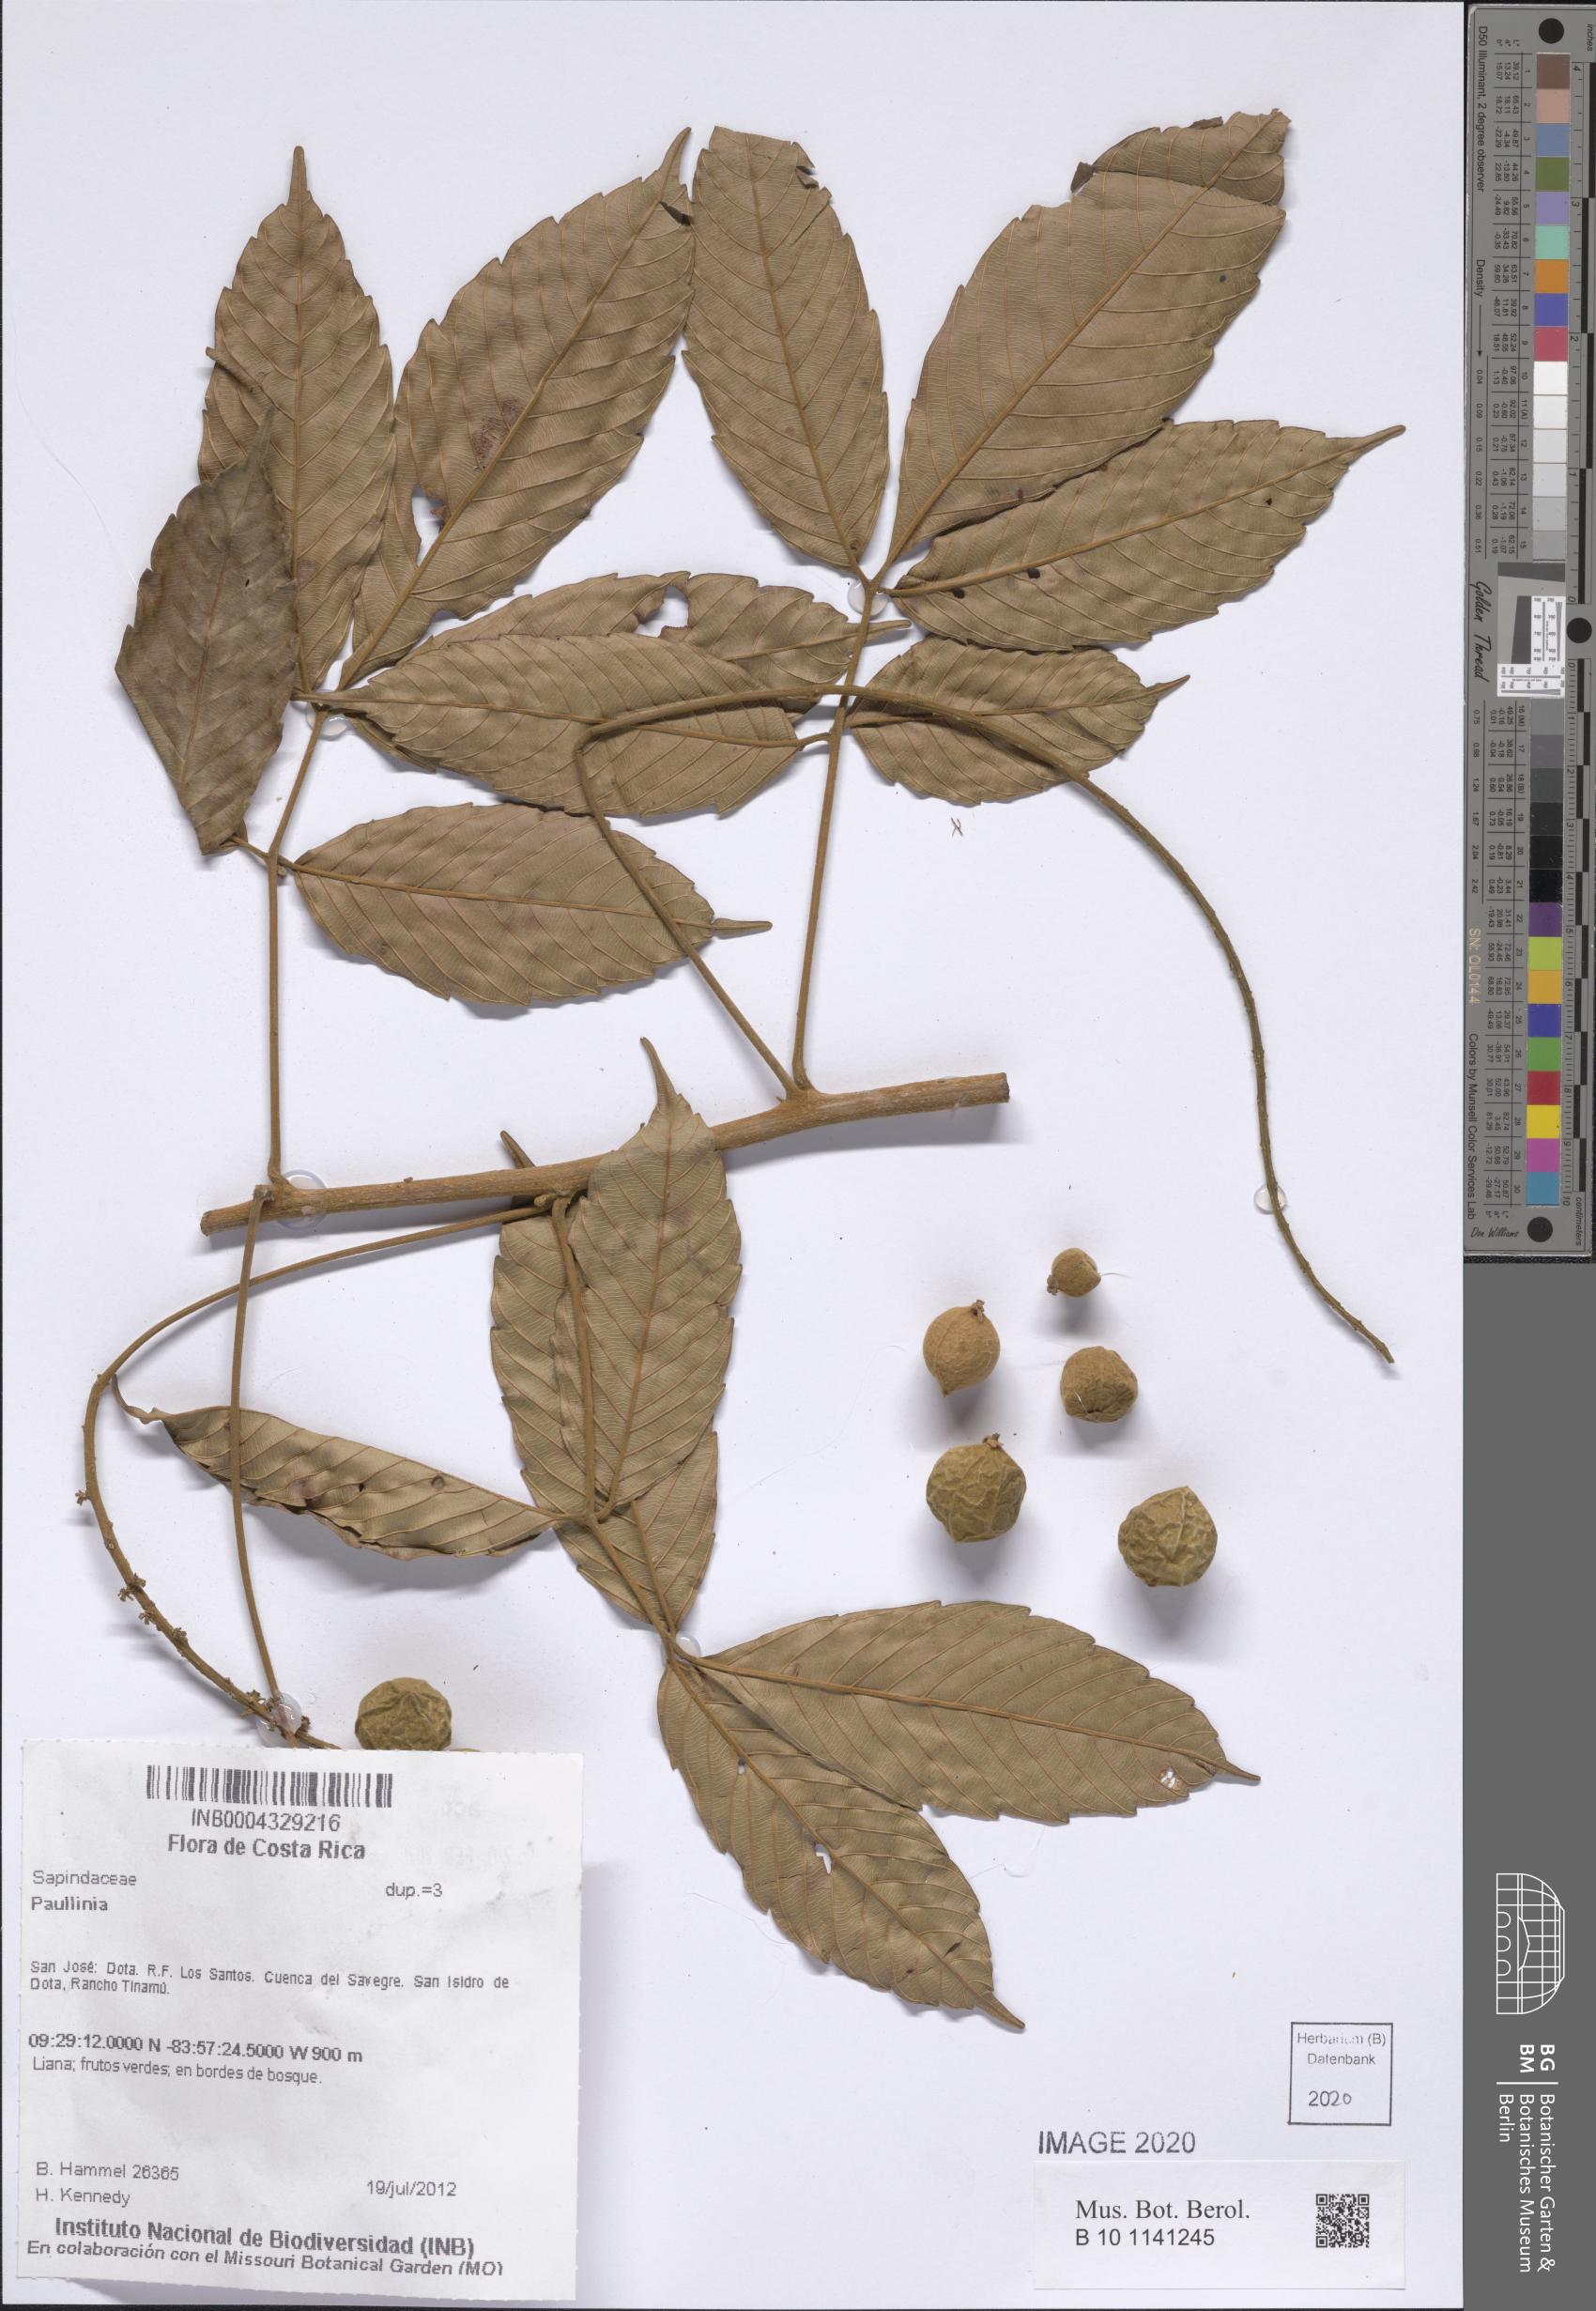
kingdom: Plantae
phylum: Tracheophyta
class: Magnoliopsida
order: Sapindales
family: Sapindaceae
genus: Paullinia
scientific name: Paullinia
